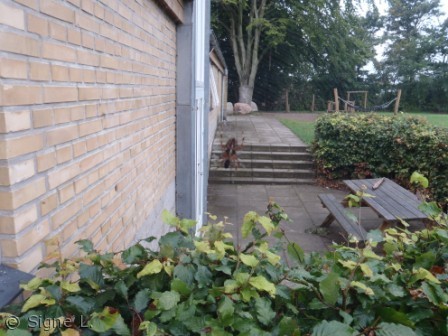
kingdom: Animalia
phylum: Arthropoda
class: Arachnida
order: Araneae
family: Araneidae
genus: Araneus
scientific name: Araneus diadematus
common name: Korsedderkop
